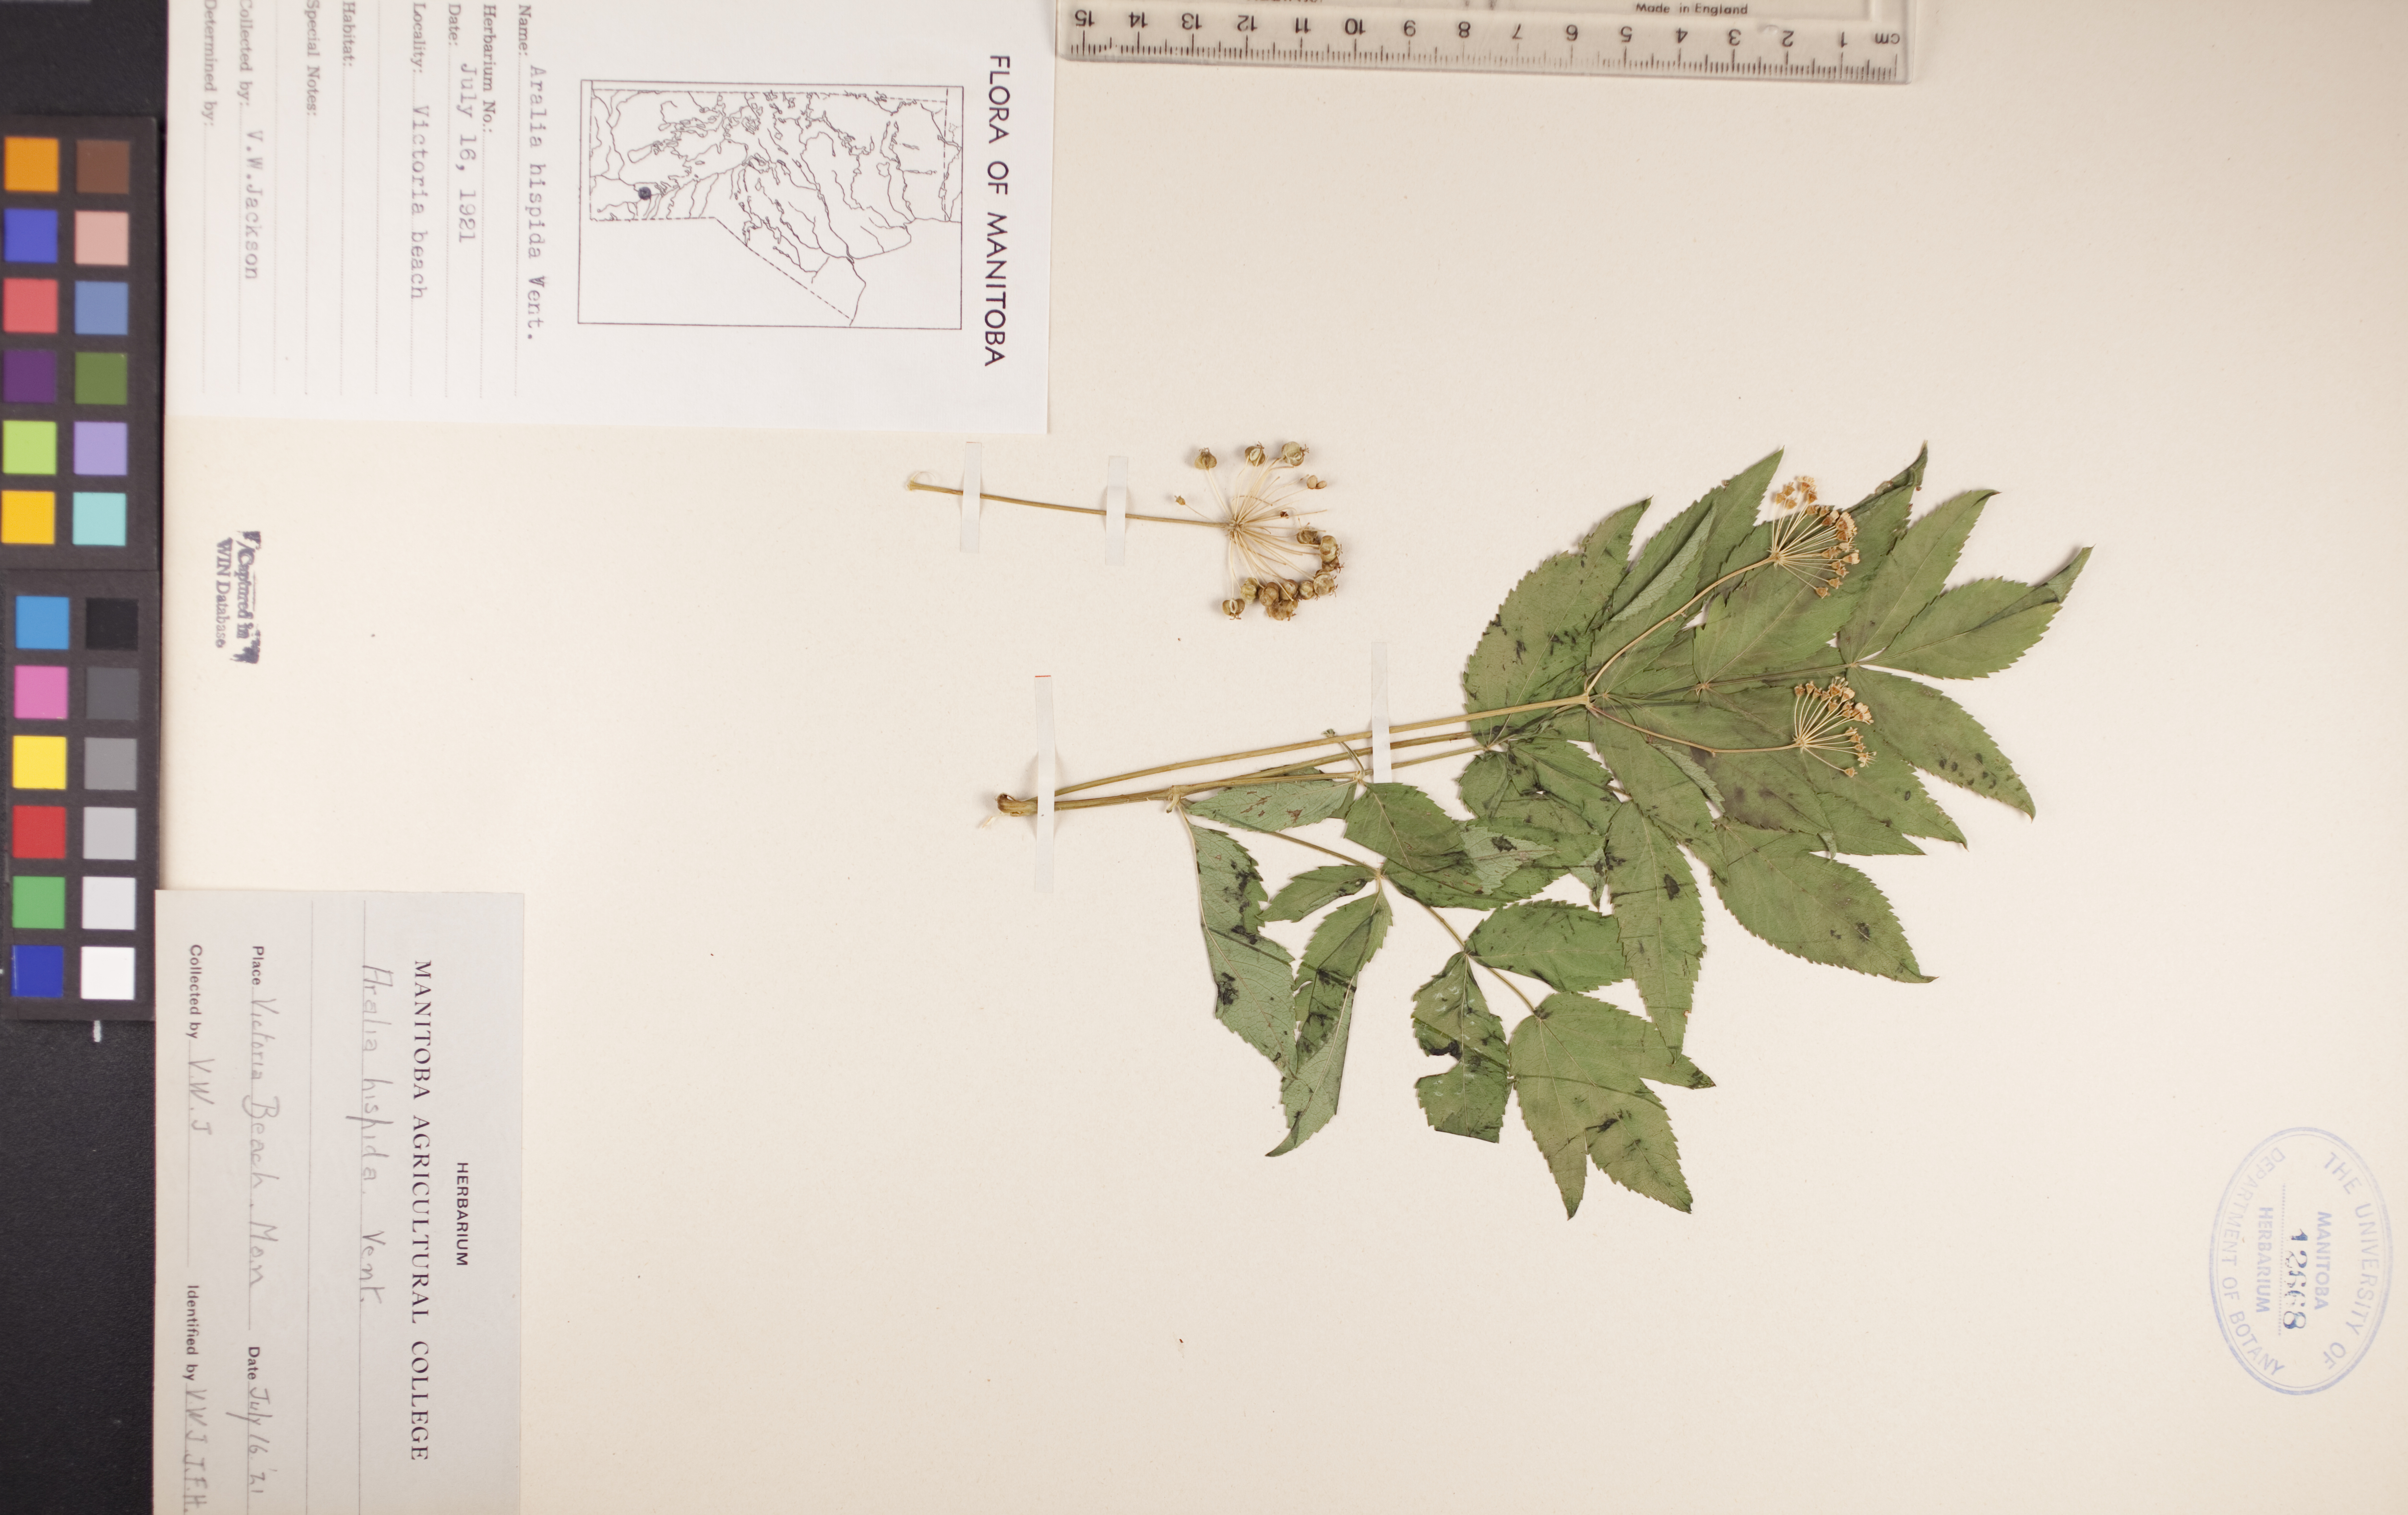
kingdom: Plantae
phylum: Tracheophyta
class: Magnoliopsida
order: Apiales
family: Araliaceae
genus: Aralia
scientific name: Aralia hispida
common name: Bristly sarsaparilla
